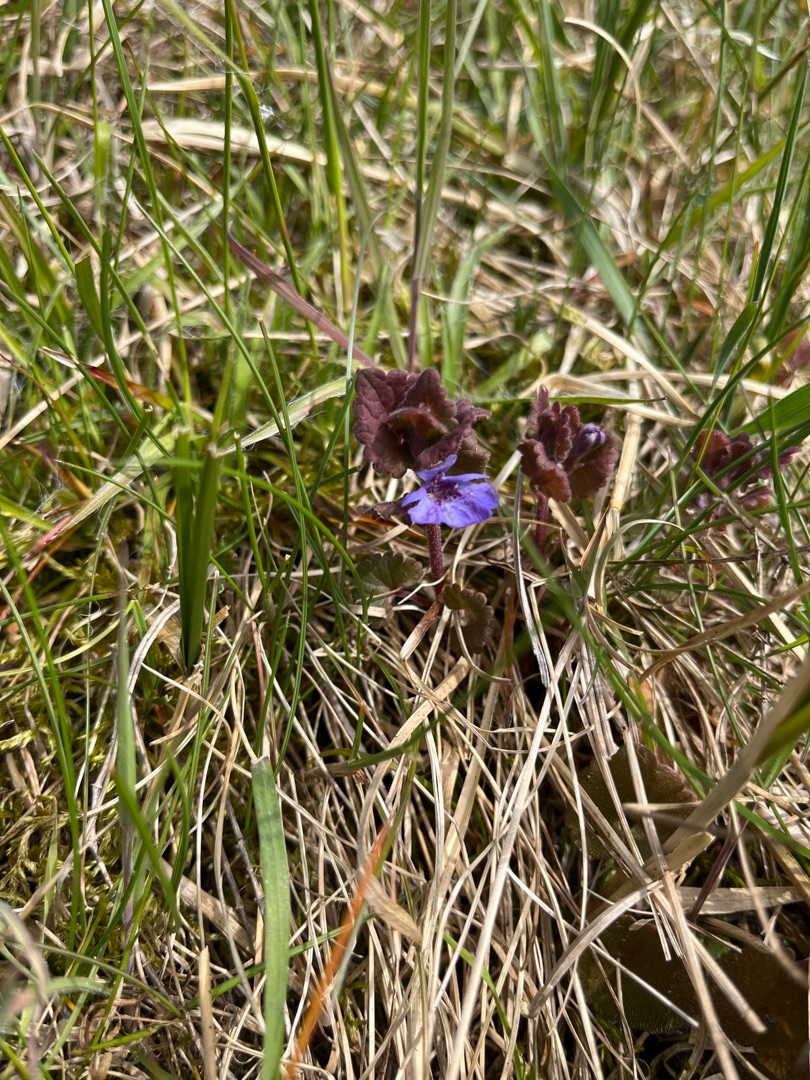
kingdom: Plantae
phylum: Tracheophyta
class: Magnoliopsida
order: Lamiales
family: Lamiaceae
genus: Glechoma
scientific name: Glechoma hederacea
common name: Korsknap
